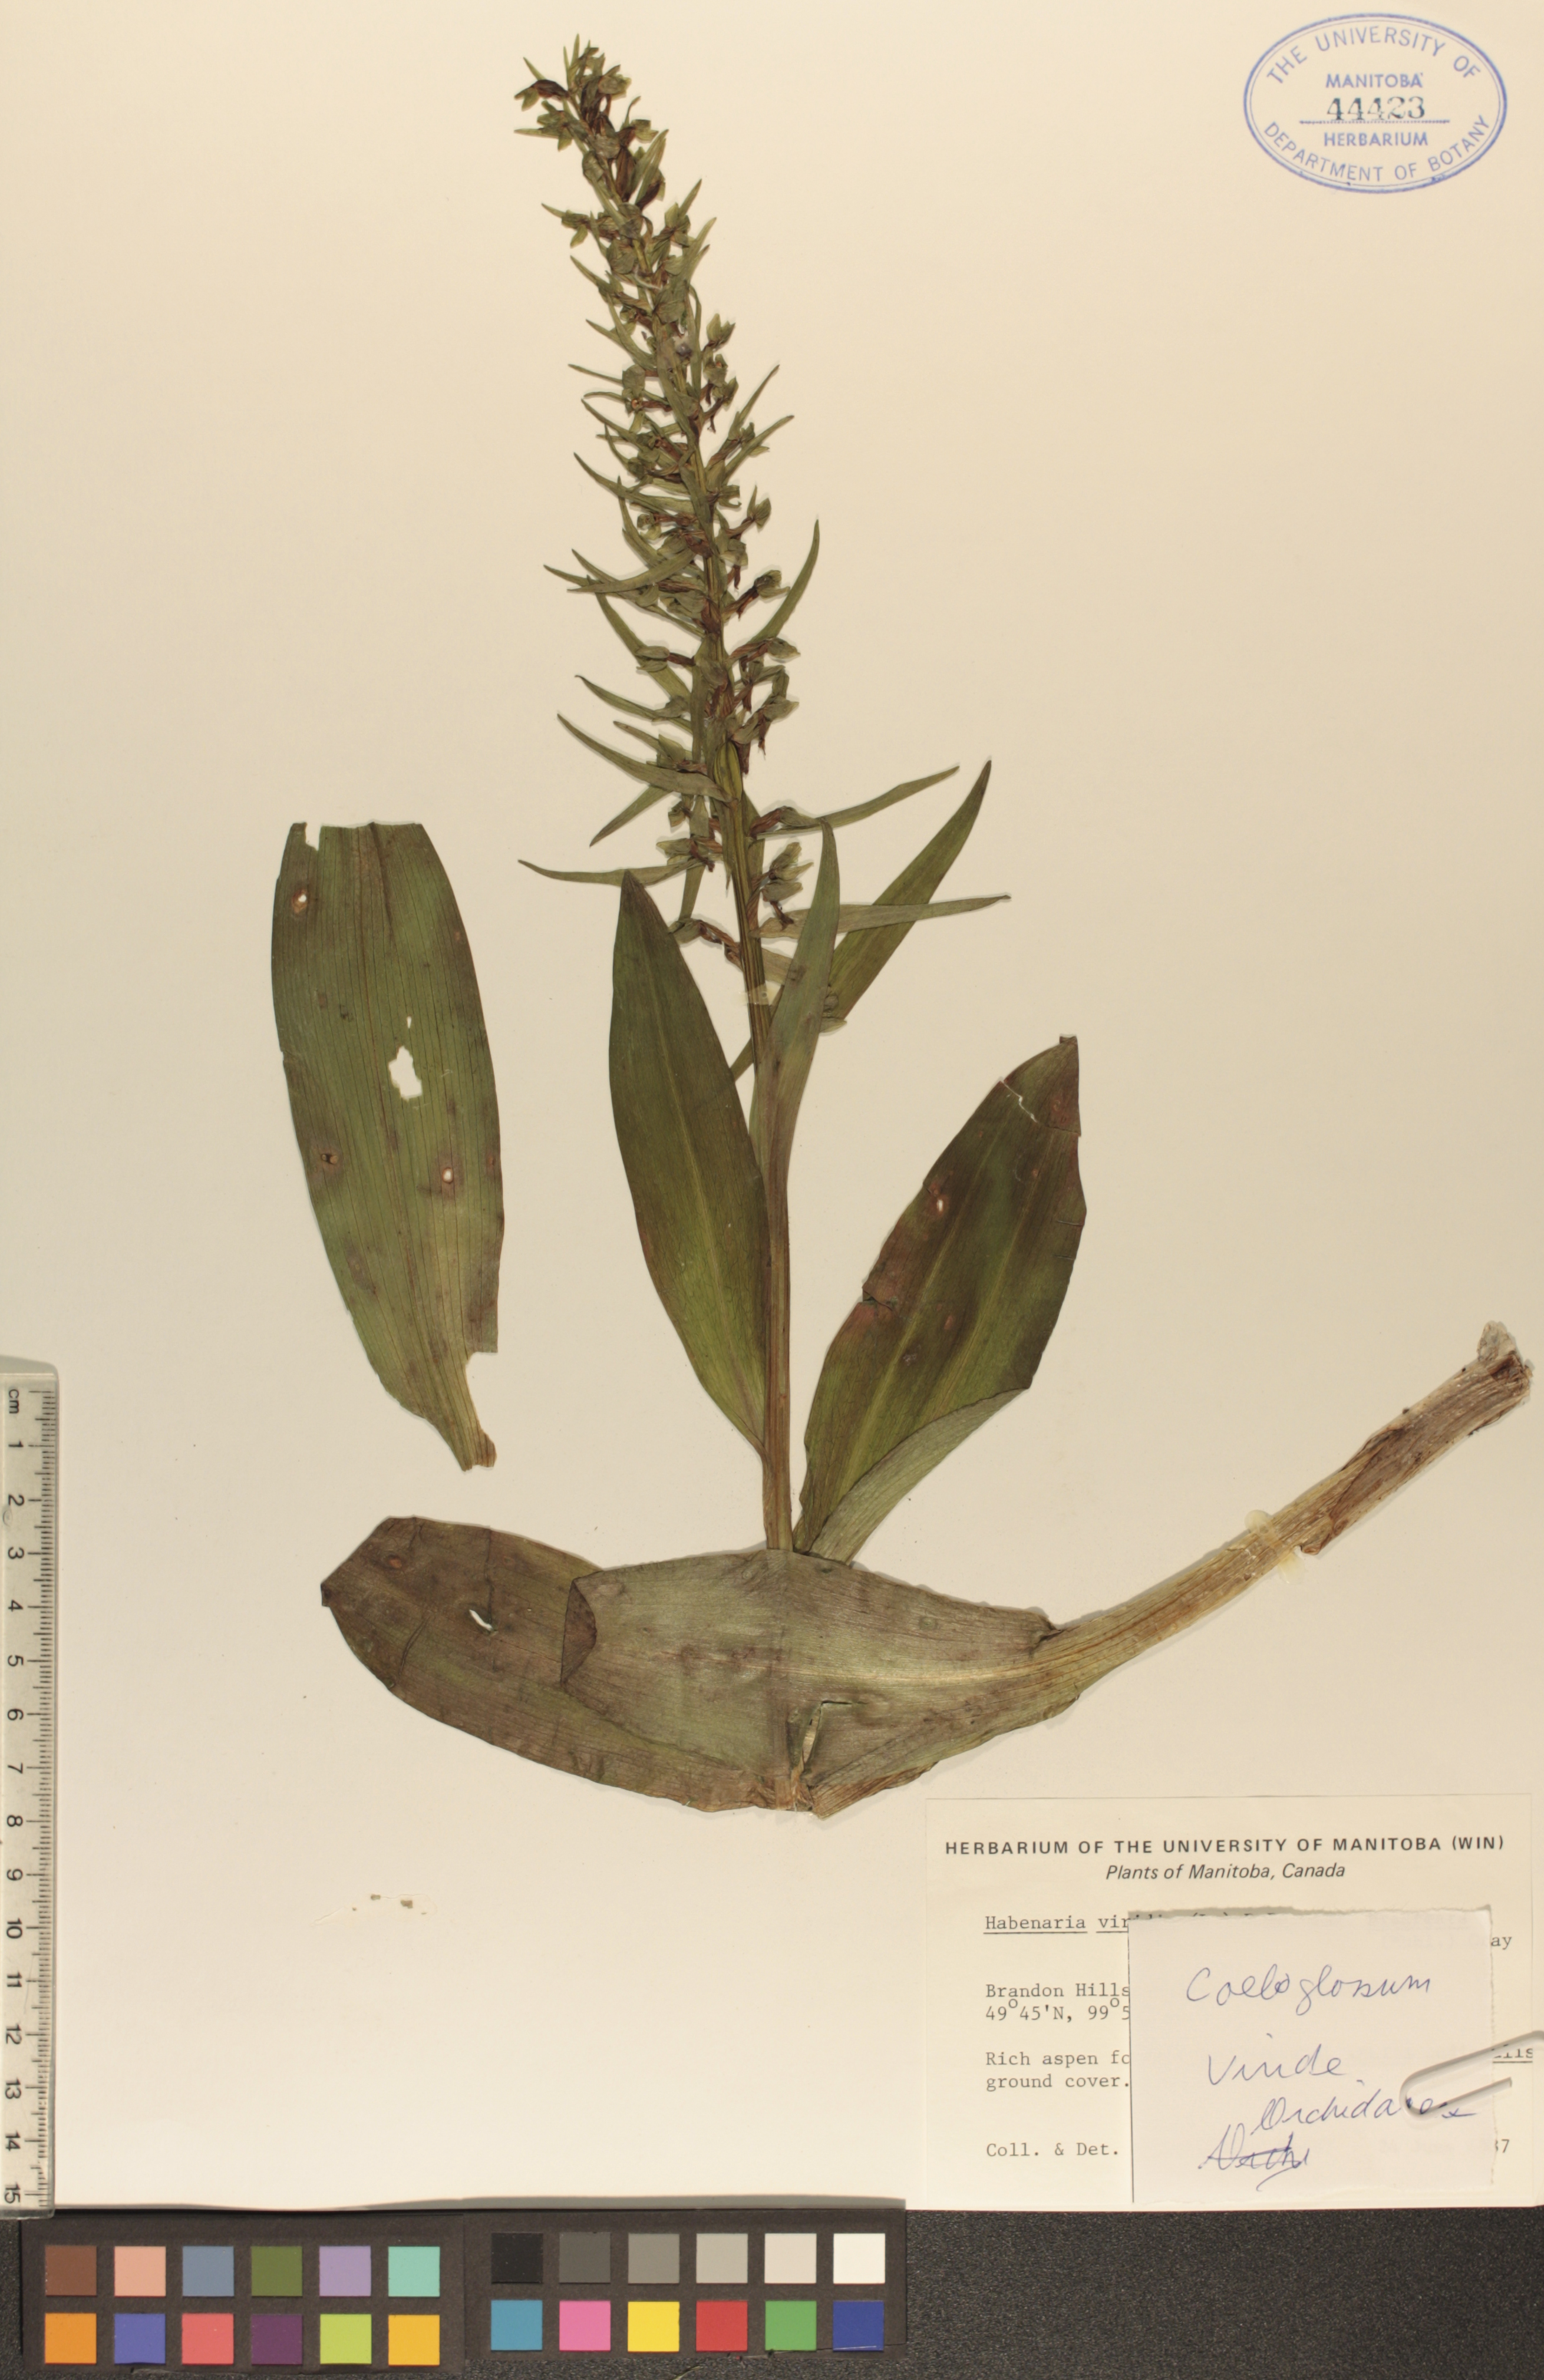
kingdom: Plantae
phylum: Tracheophyta
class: Liliopsida
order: Asparagales
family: Orchidaceae
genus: Dactylorhiza
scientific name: Dactylorhiza viridis
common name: Longbract frog orchid
